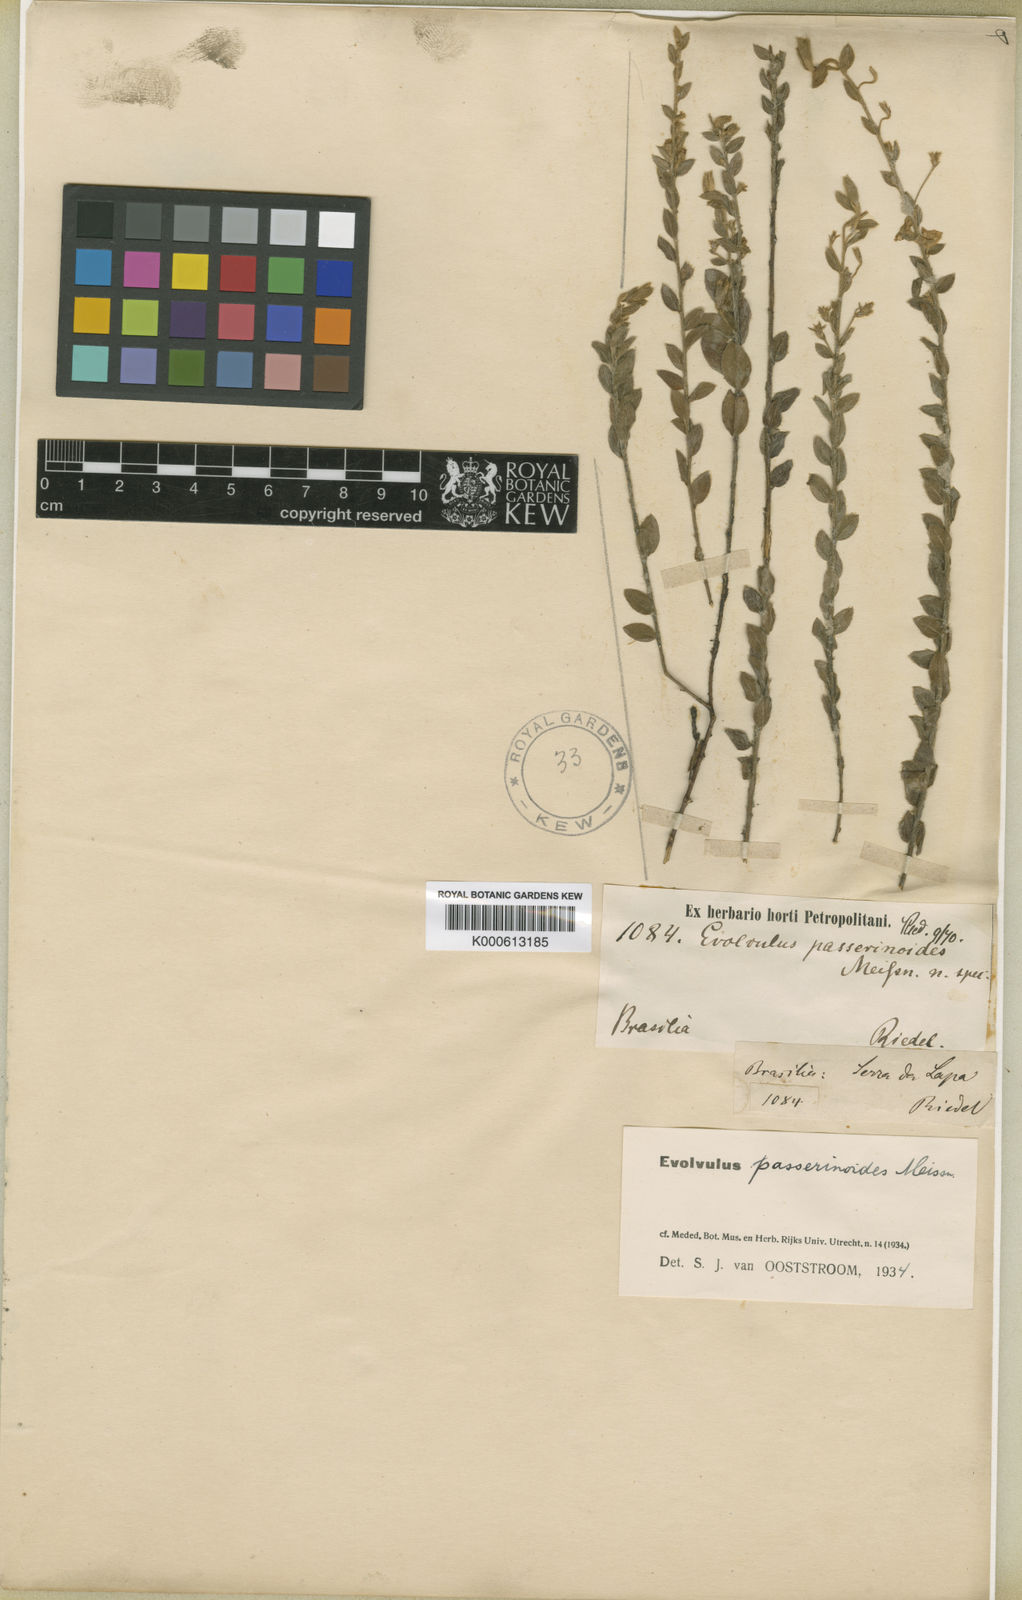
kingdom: Plantae
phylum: Tracheophyta
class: Magnoliopsida
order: Solanales
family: Convolvulaceae
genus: Evolvulus
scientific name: Evolvulus passerinoides
